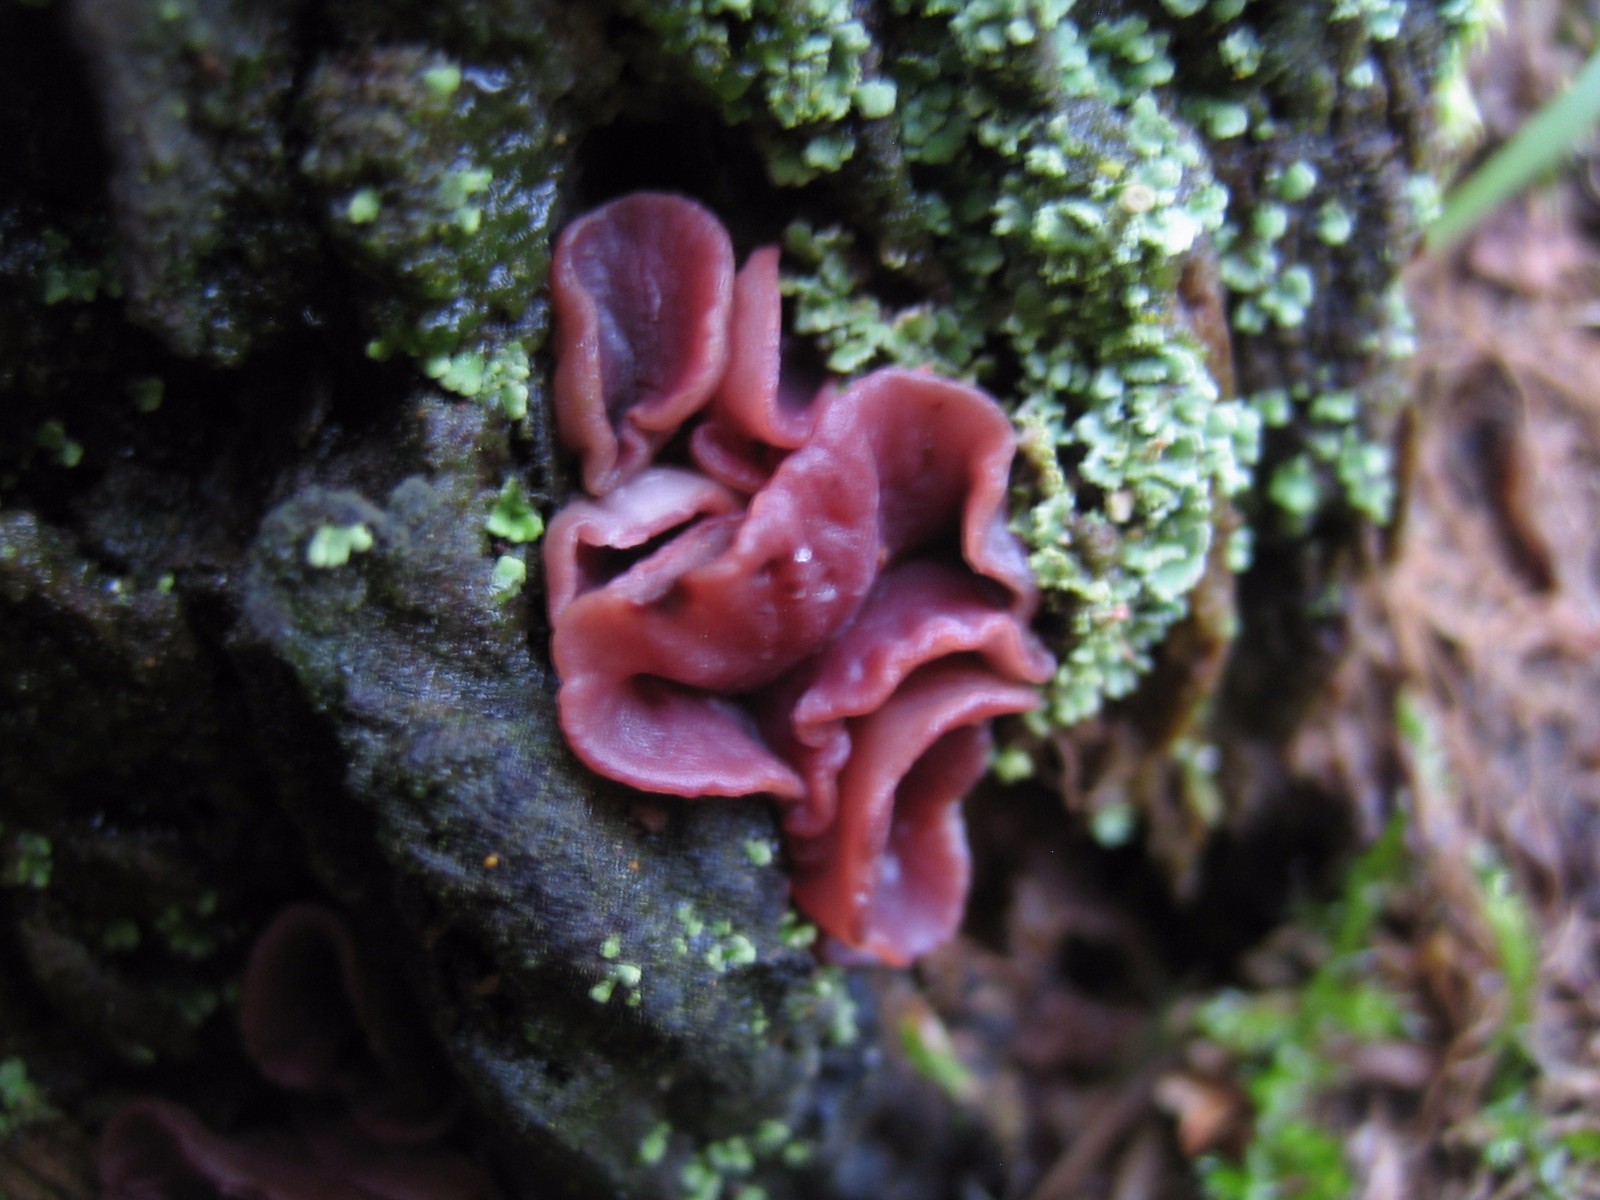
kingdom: Fungi
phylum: Ascomycota
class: Leotiomycetes
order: Helotiales
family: Gelatinodiscaceae
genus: Ascocoryne
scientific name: Ascocoryne cylichnium
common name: stor sejskive
